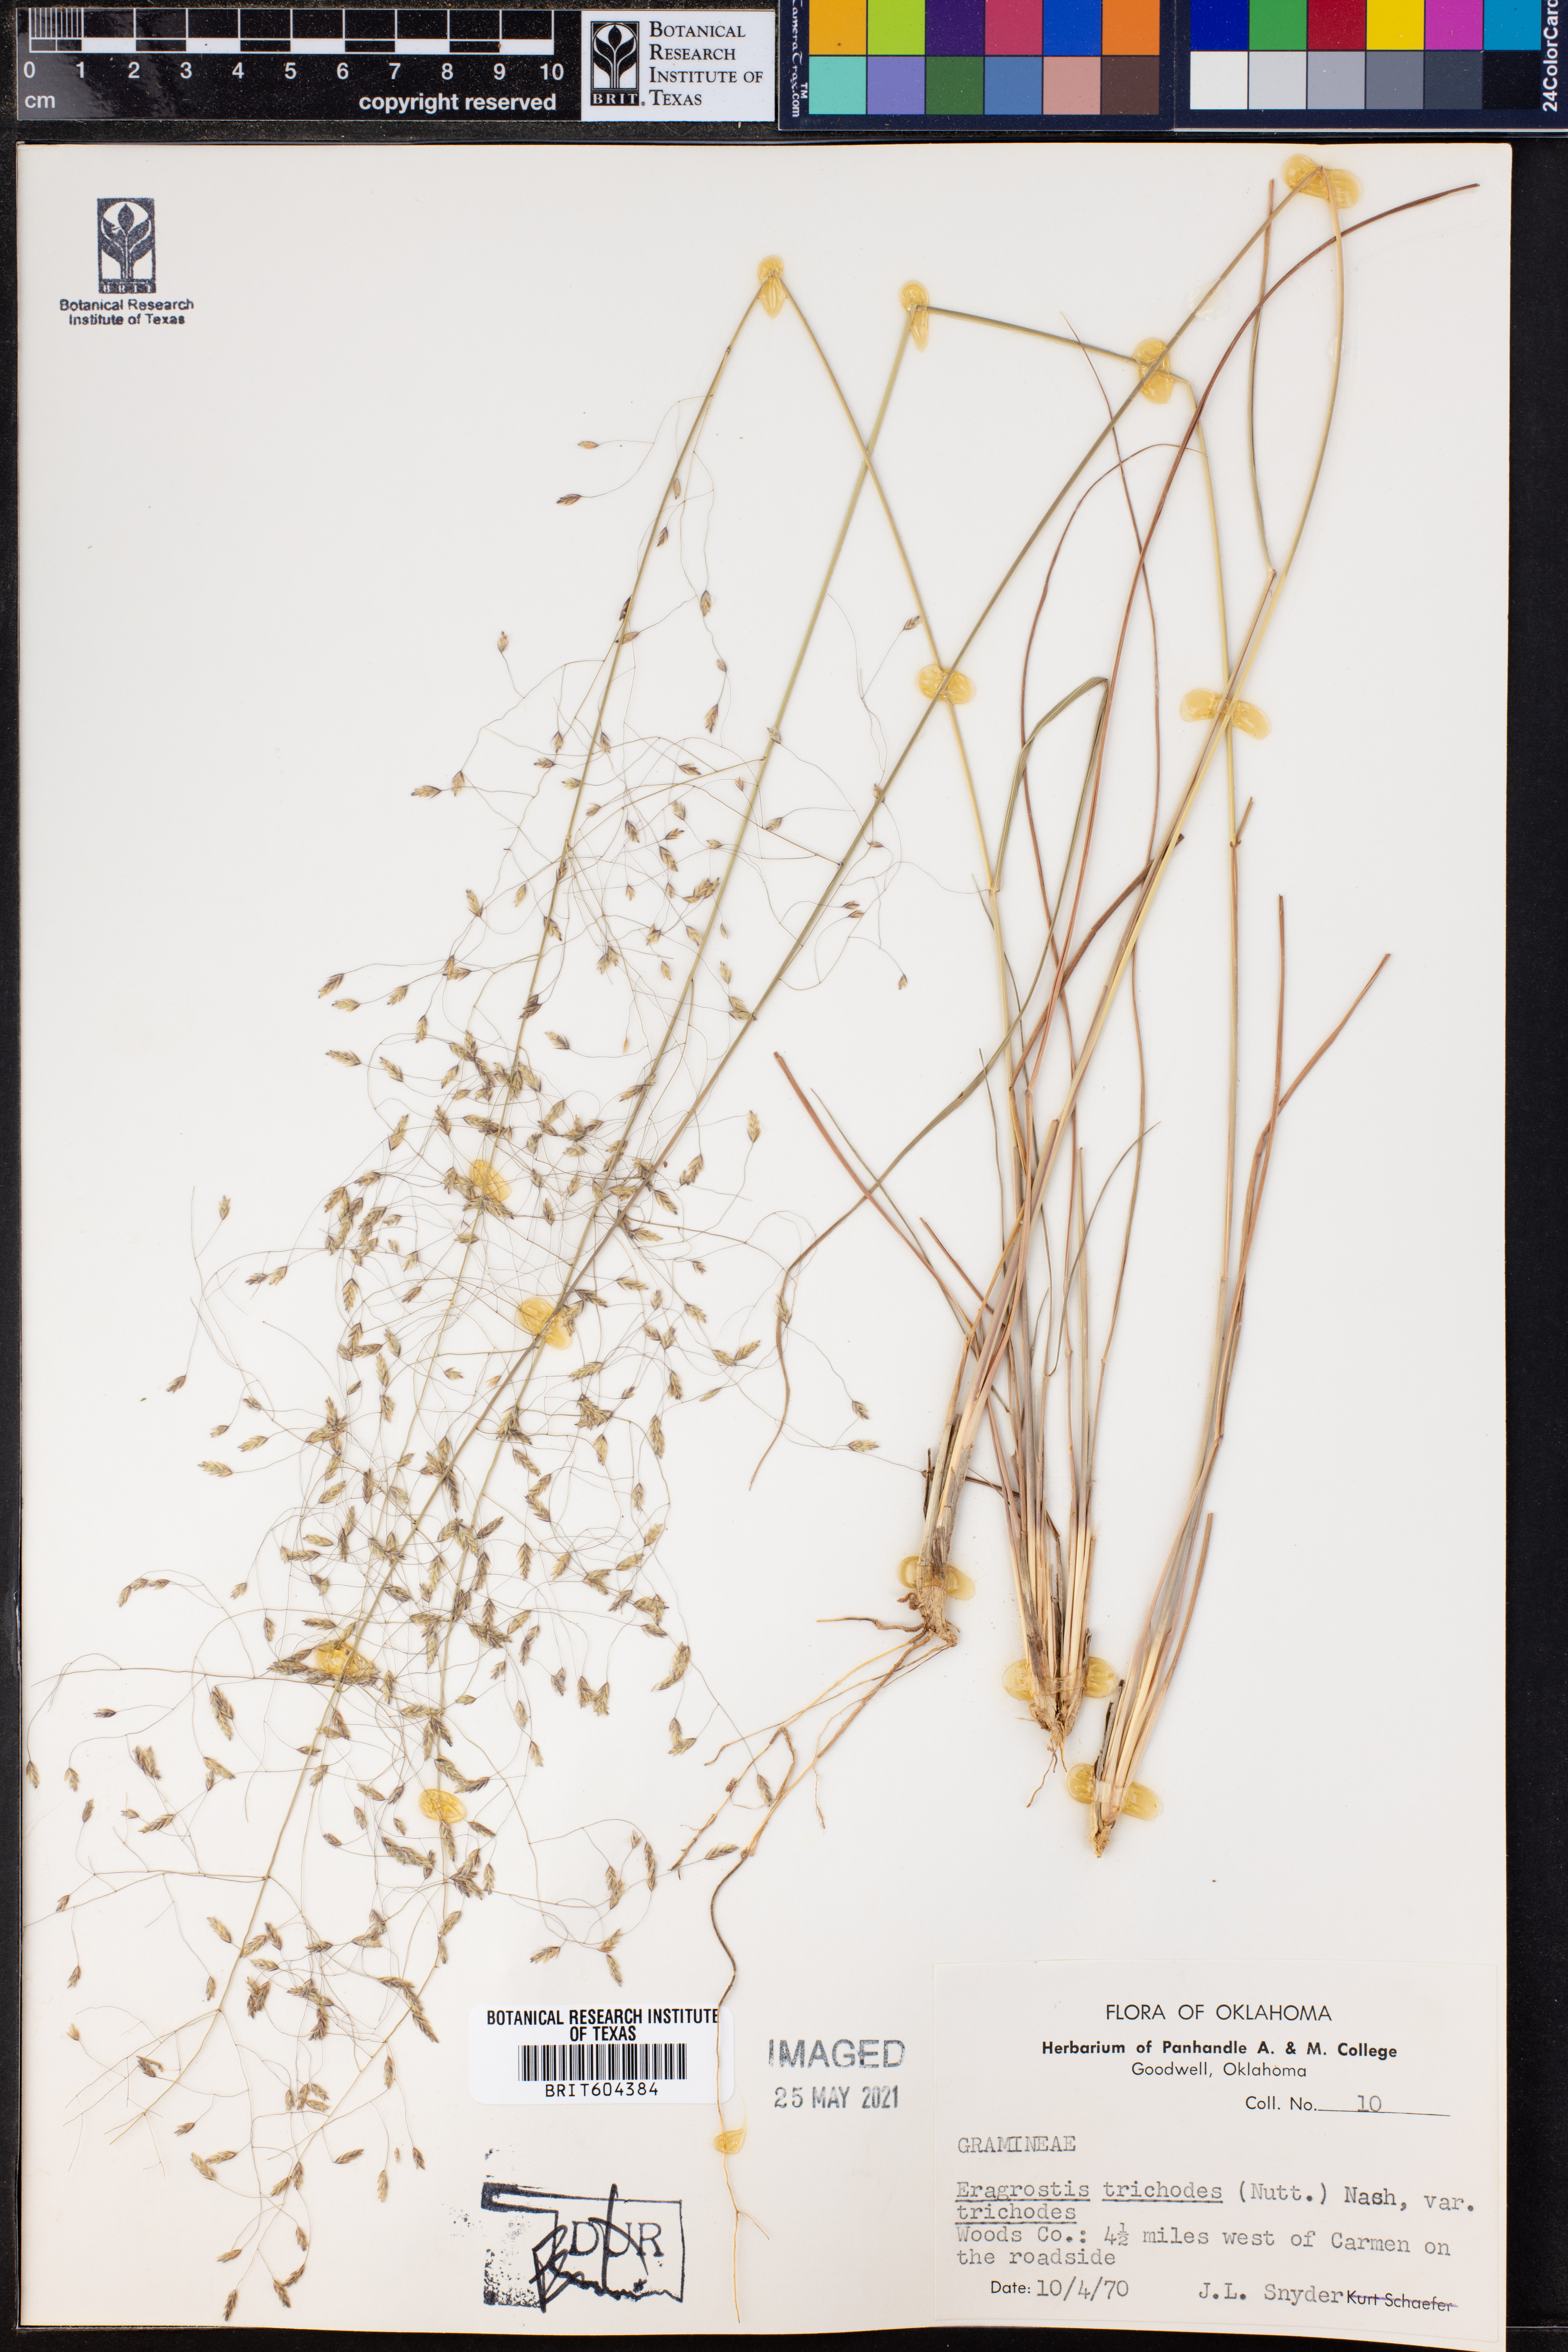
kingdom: Plantae
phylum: Tracheophyta
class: Liliopsida
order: Poales
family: Poaceae
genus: Eragrostis
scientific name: Eragrostis trichodes
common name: Sand love grass
